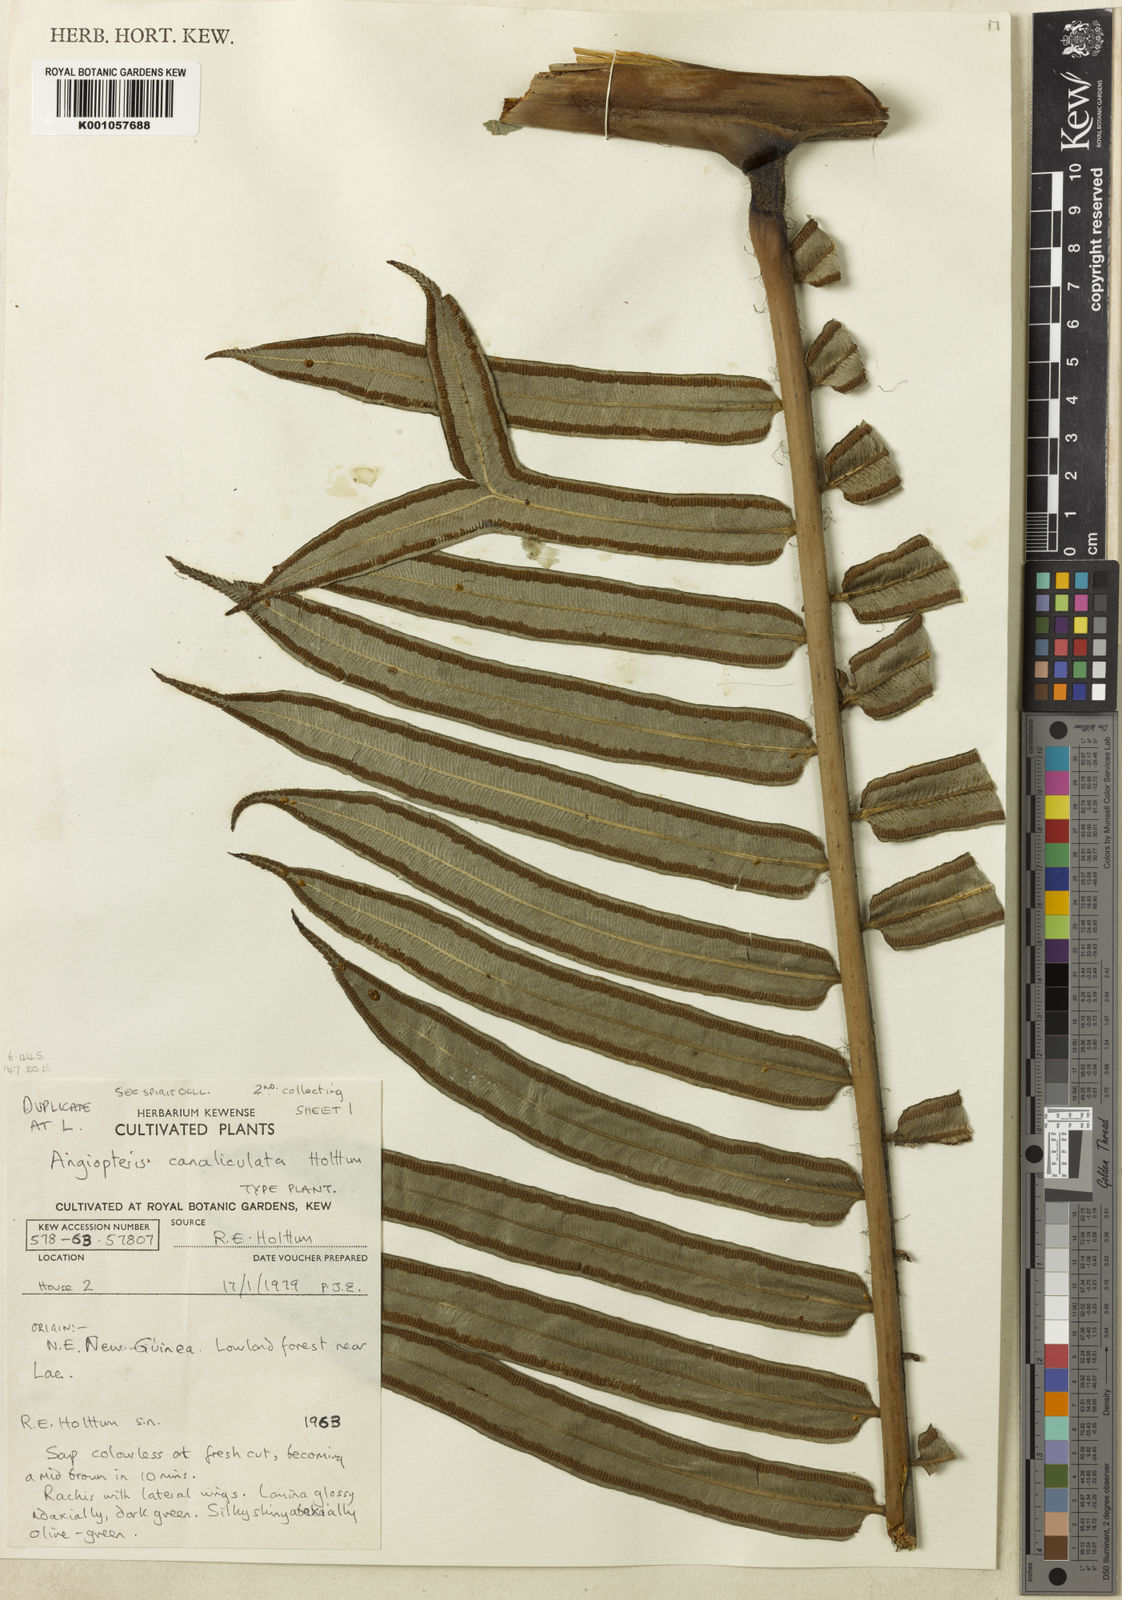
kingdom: Plantae
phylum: Tracheophyta
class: Polypodiopsida
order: Marattiales
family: Marattiaceae
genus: Angiopteris
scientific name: Angiopteris evecta
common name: Mule's-foot fern
